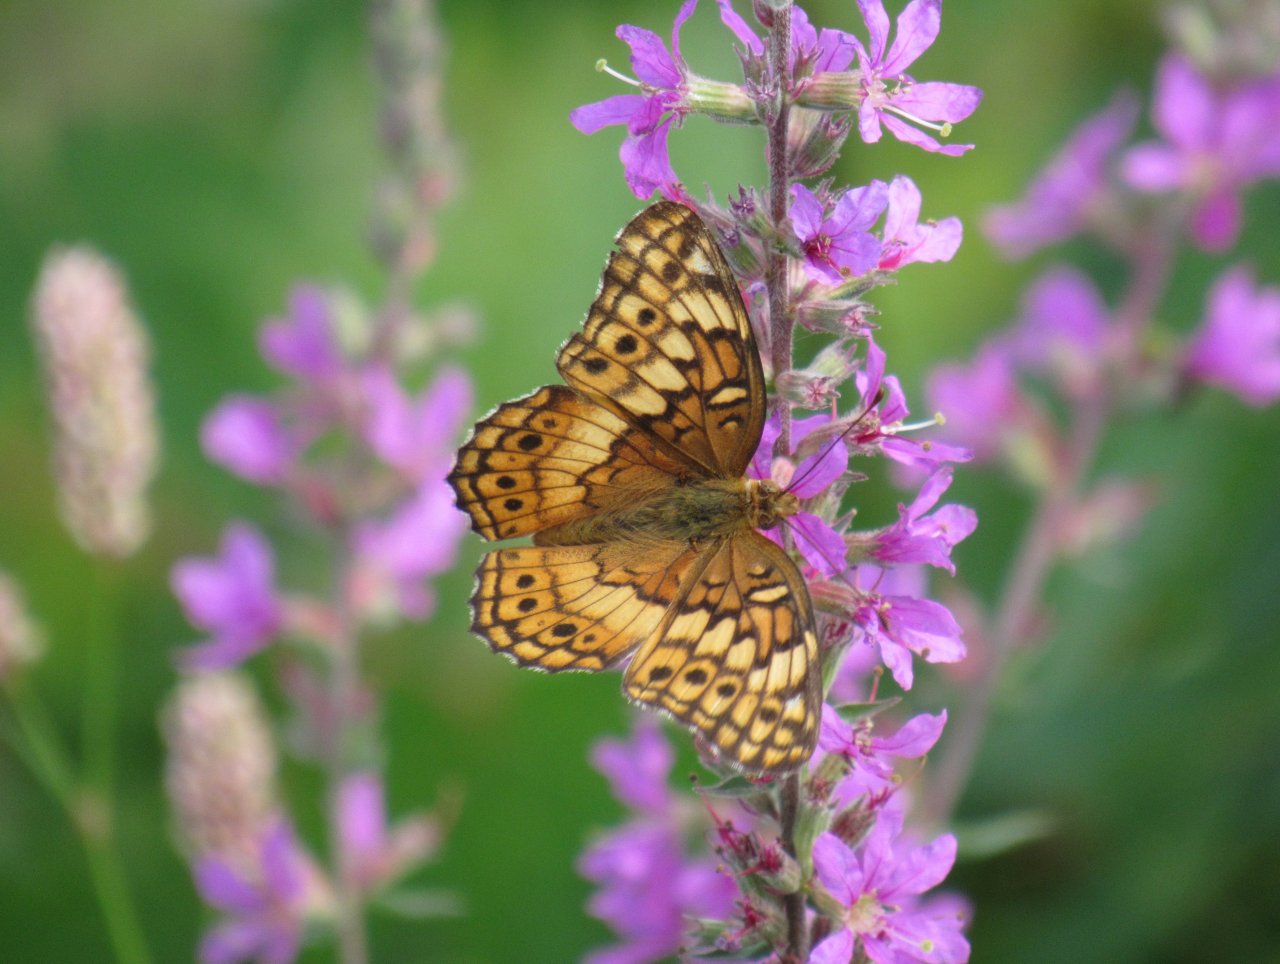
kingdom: Animalia
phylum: Arthropoda
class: Insecta
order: Lepidoptera
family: Nymphalidae
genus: Euptoieta
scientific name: Euptoieta claudia
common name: Variegated Fritillary
